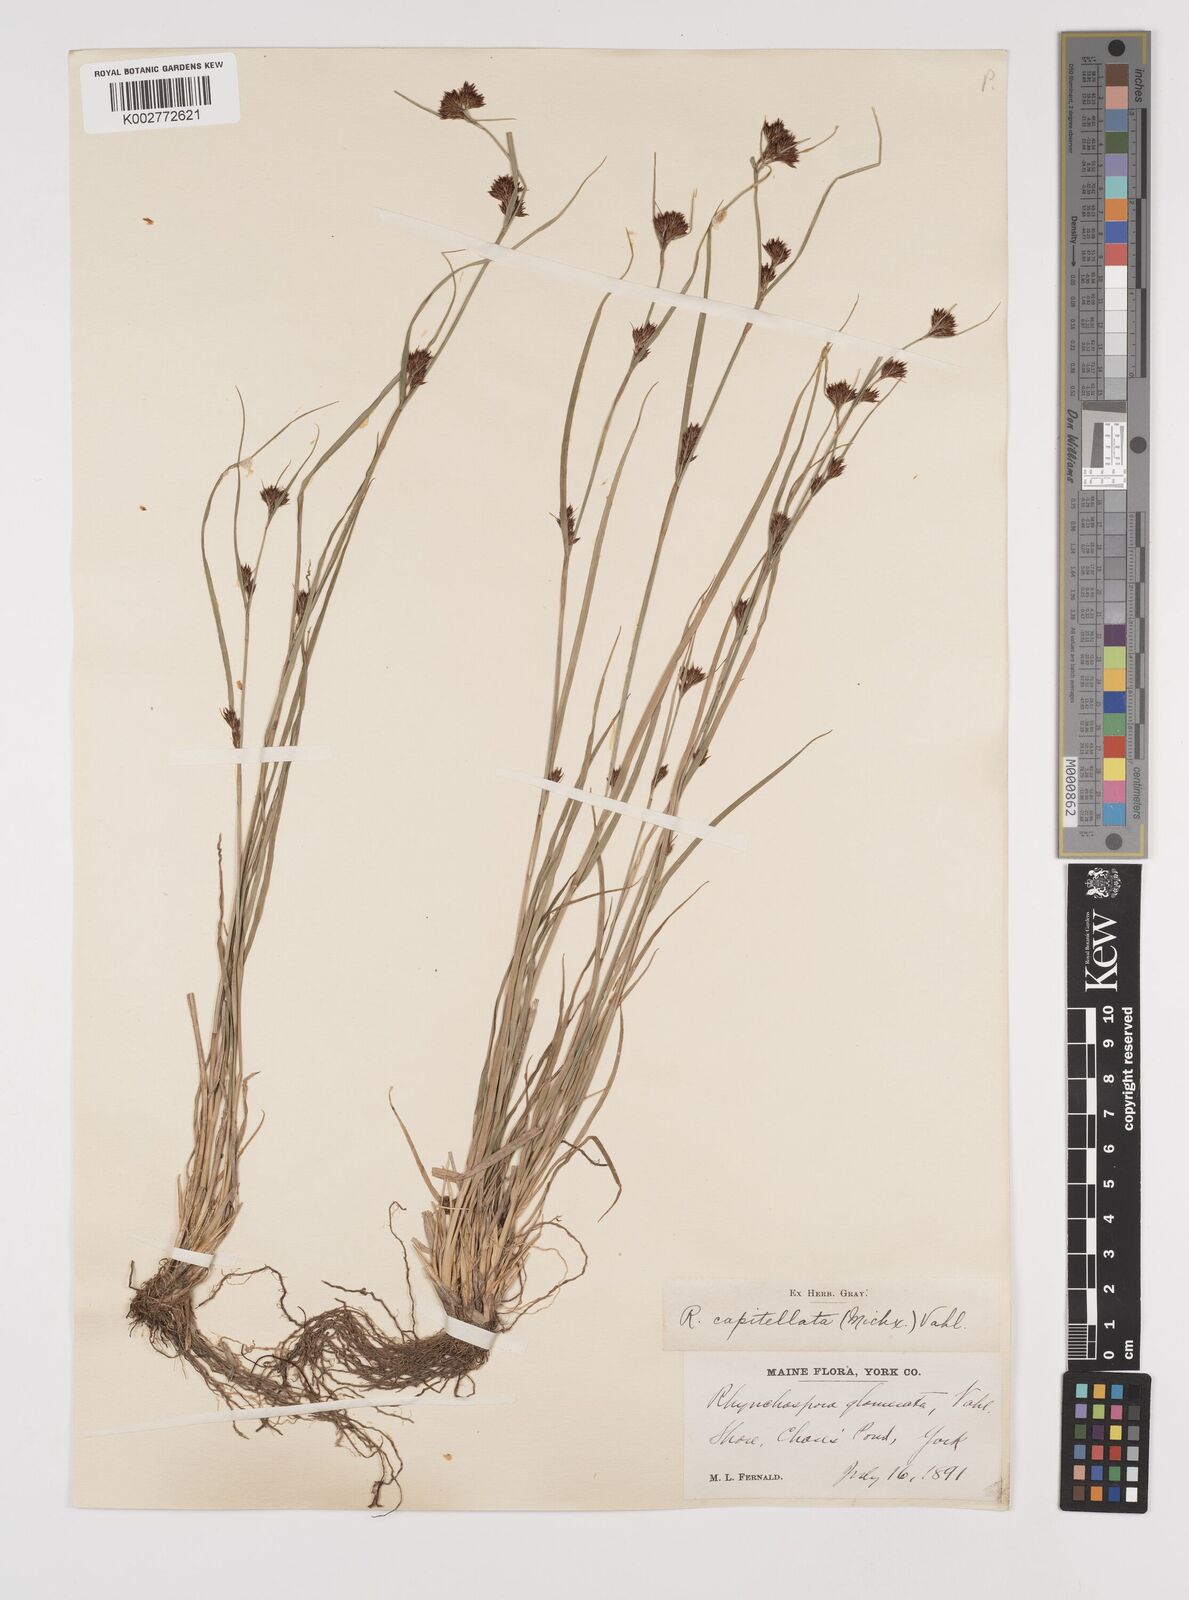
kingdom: Plantae
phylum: Tracheophyta
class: Liliopsida
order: Poales
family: Cyperaceae
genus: Rhynchospora
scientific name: Rhynchospora capitellata
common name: Brownish beaksedge
